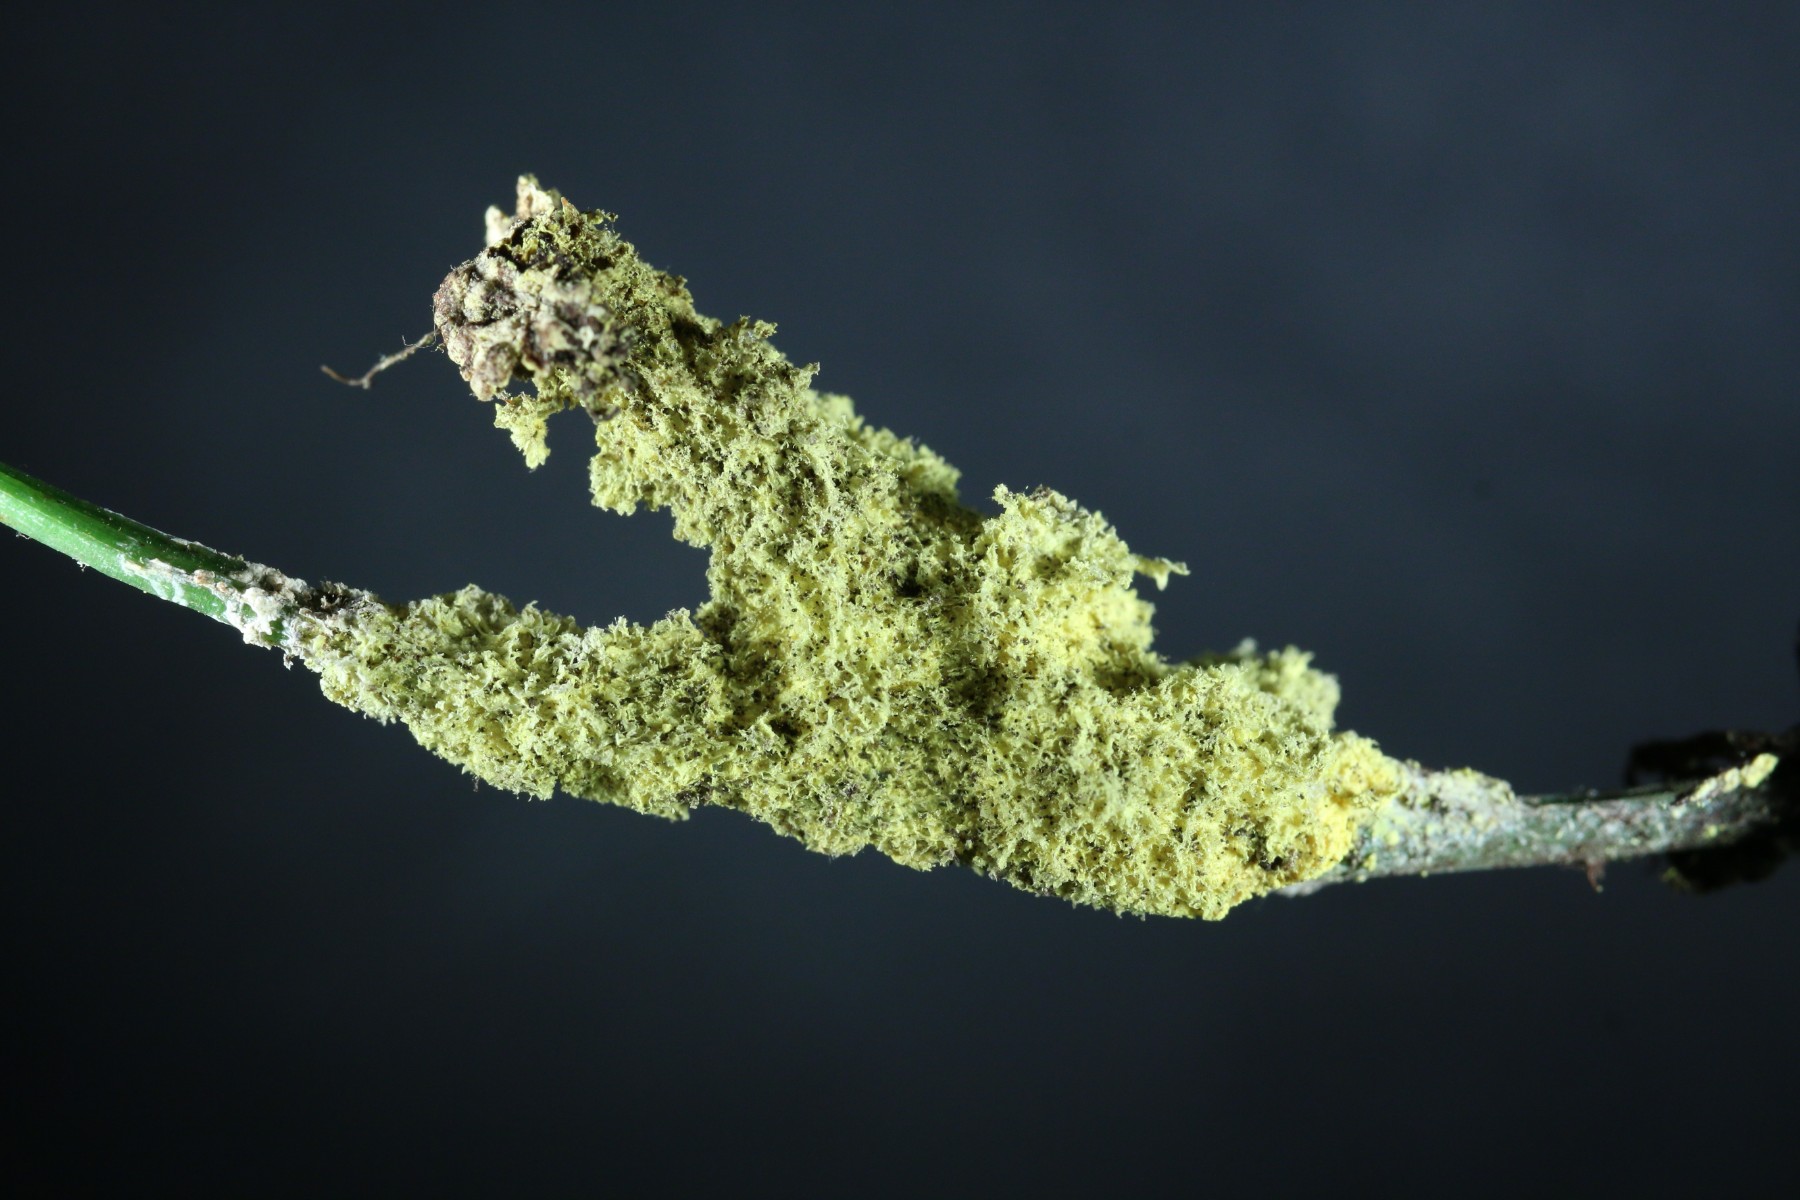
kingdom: Protozoa
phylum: Mycetozoa
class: Myxomycetes
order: Physarales
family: Physaraceae
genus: Fuligo
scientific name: Fuligo septica
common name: Dog vomit slime mold
